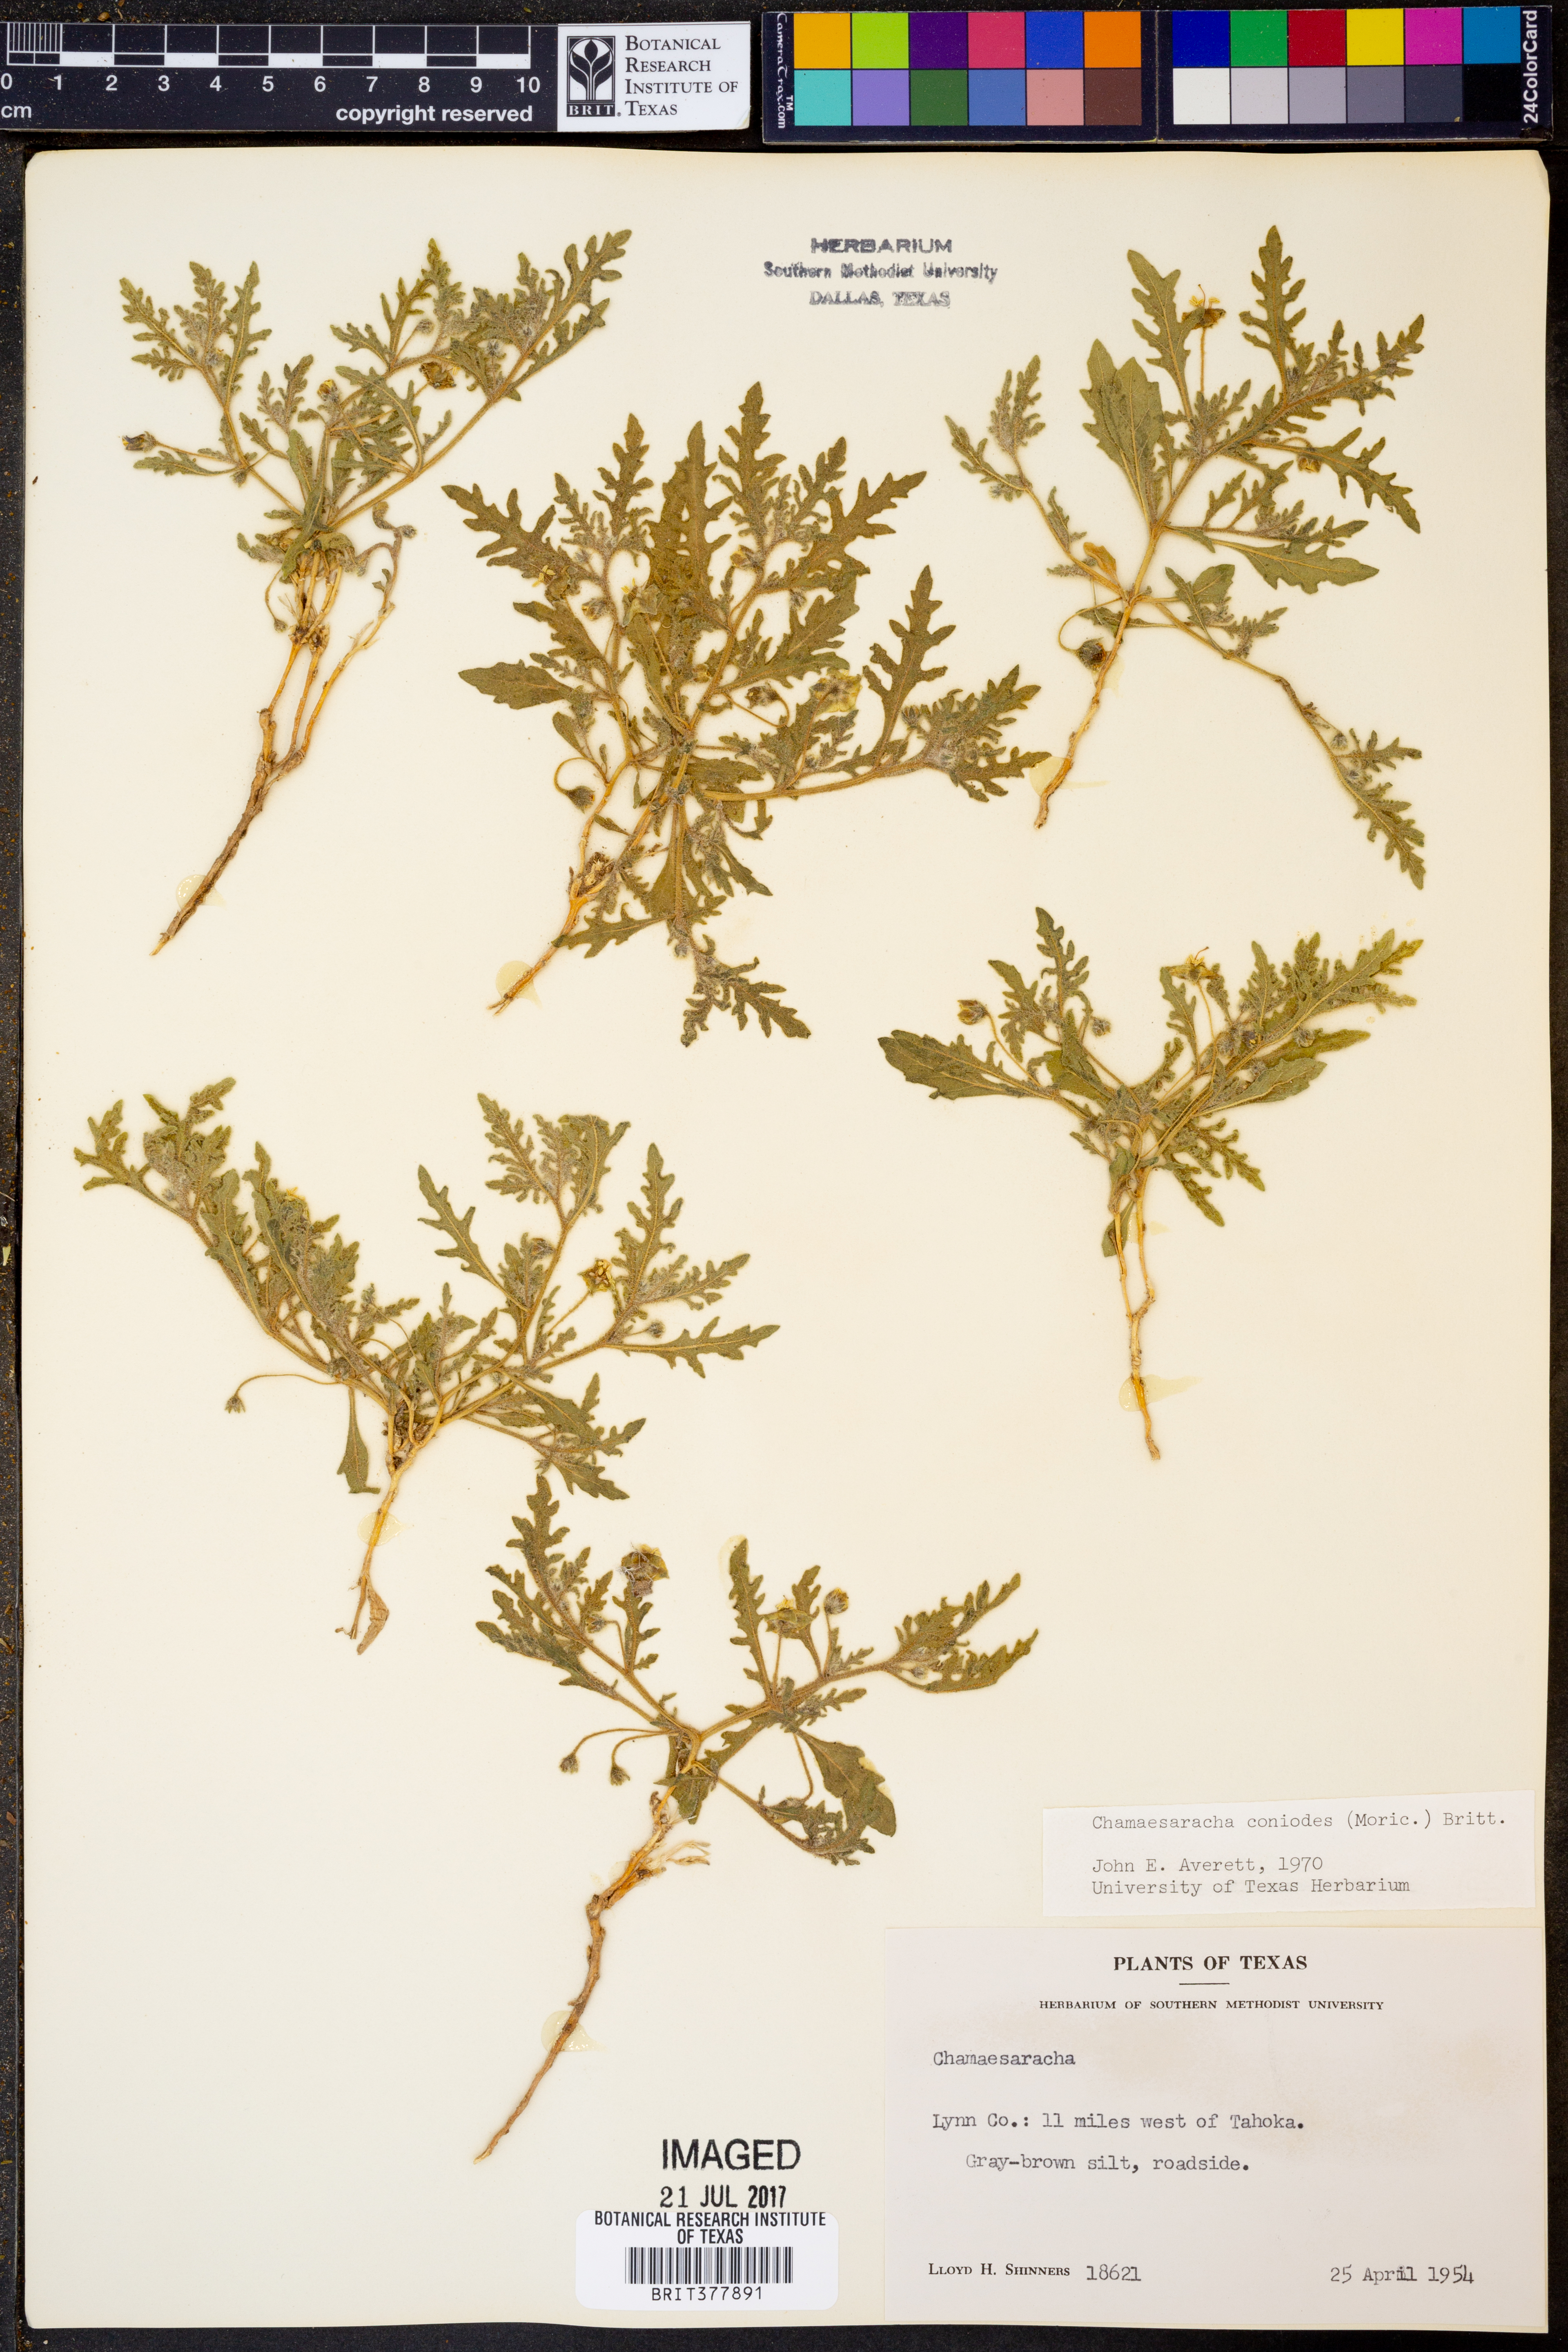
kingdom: Plantae
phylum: Tracheophyta
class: Magnoliopsida
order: Solanales
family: Solanaceae
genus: Chamaesaracha
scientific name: Chamaesaracha coniodes
